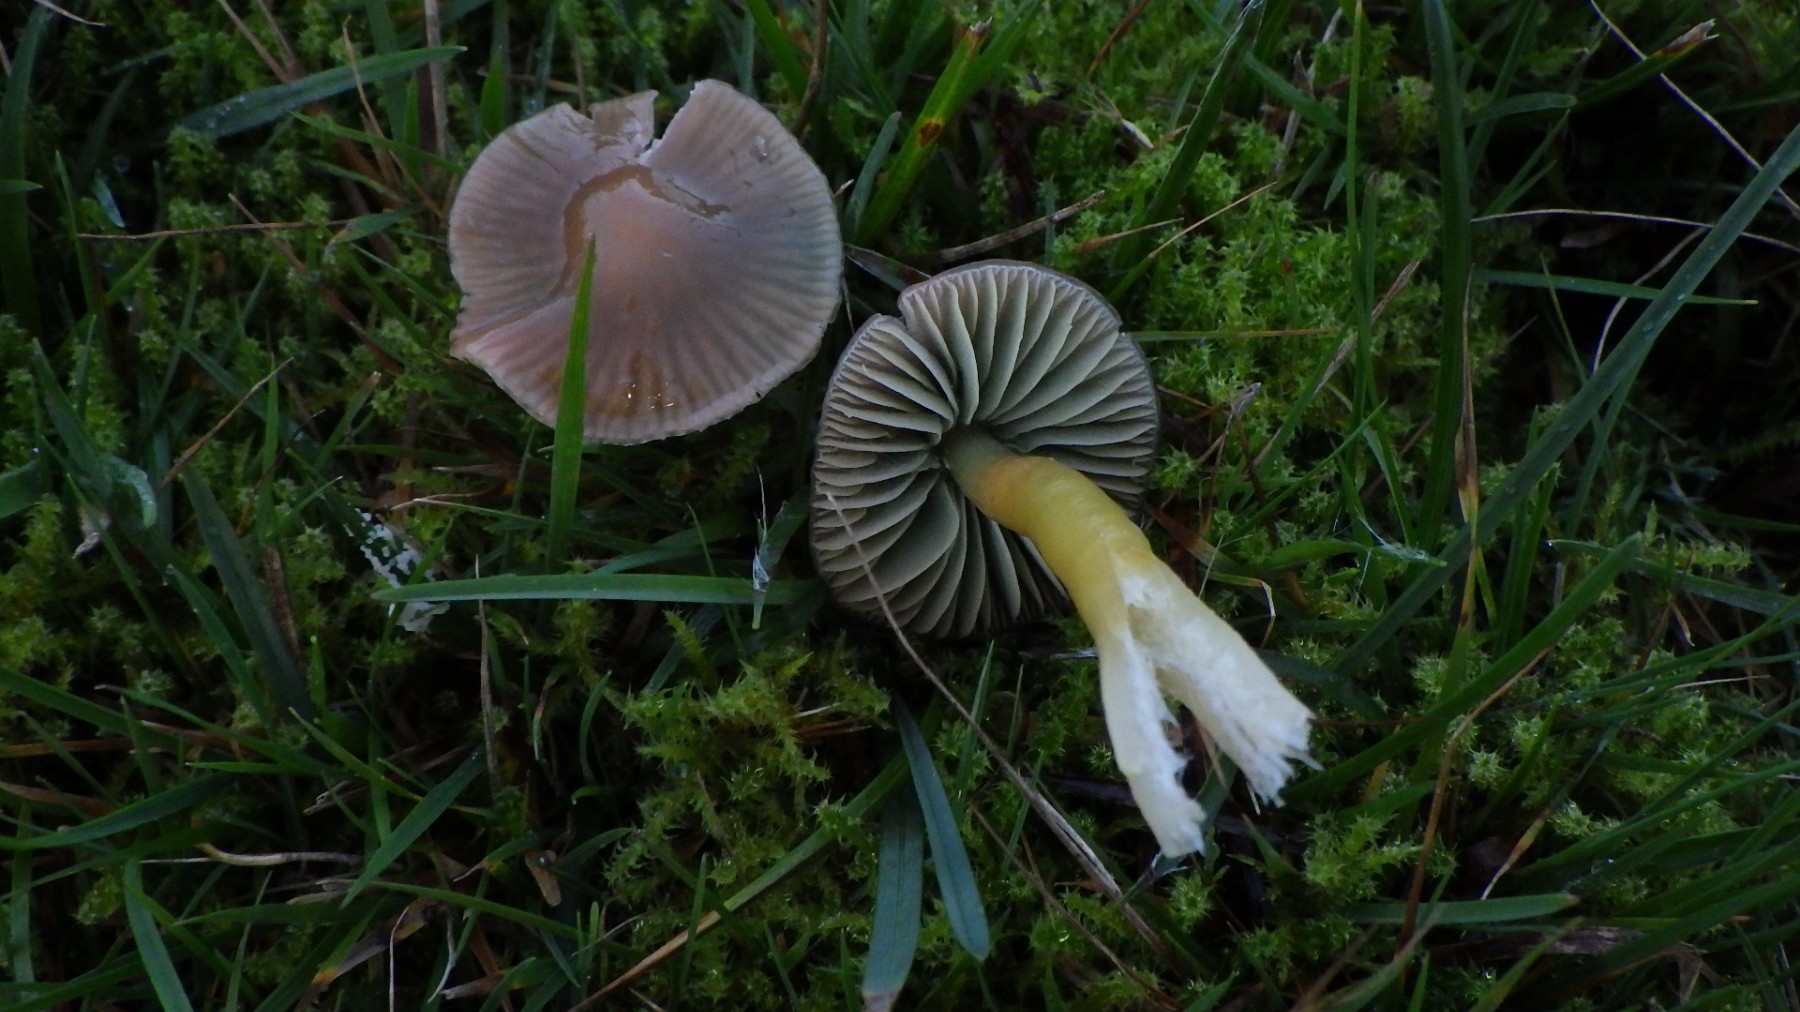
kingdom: Fungi
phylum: Basidiomycota
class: Agaricomycetes
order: Agaricales
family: Hygrophoraceae
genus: Gliophorus
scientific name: Gliophorus psittacinus
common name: papegøje-vokshat
